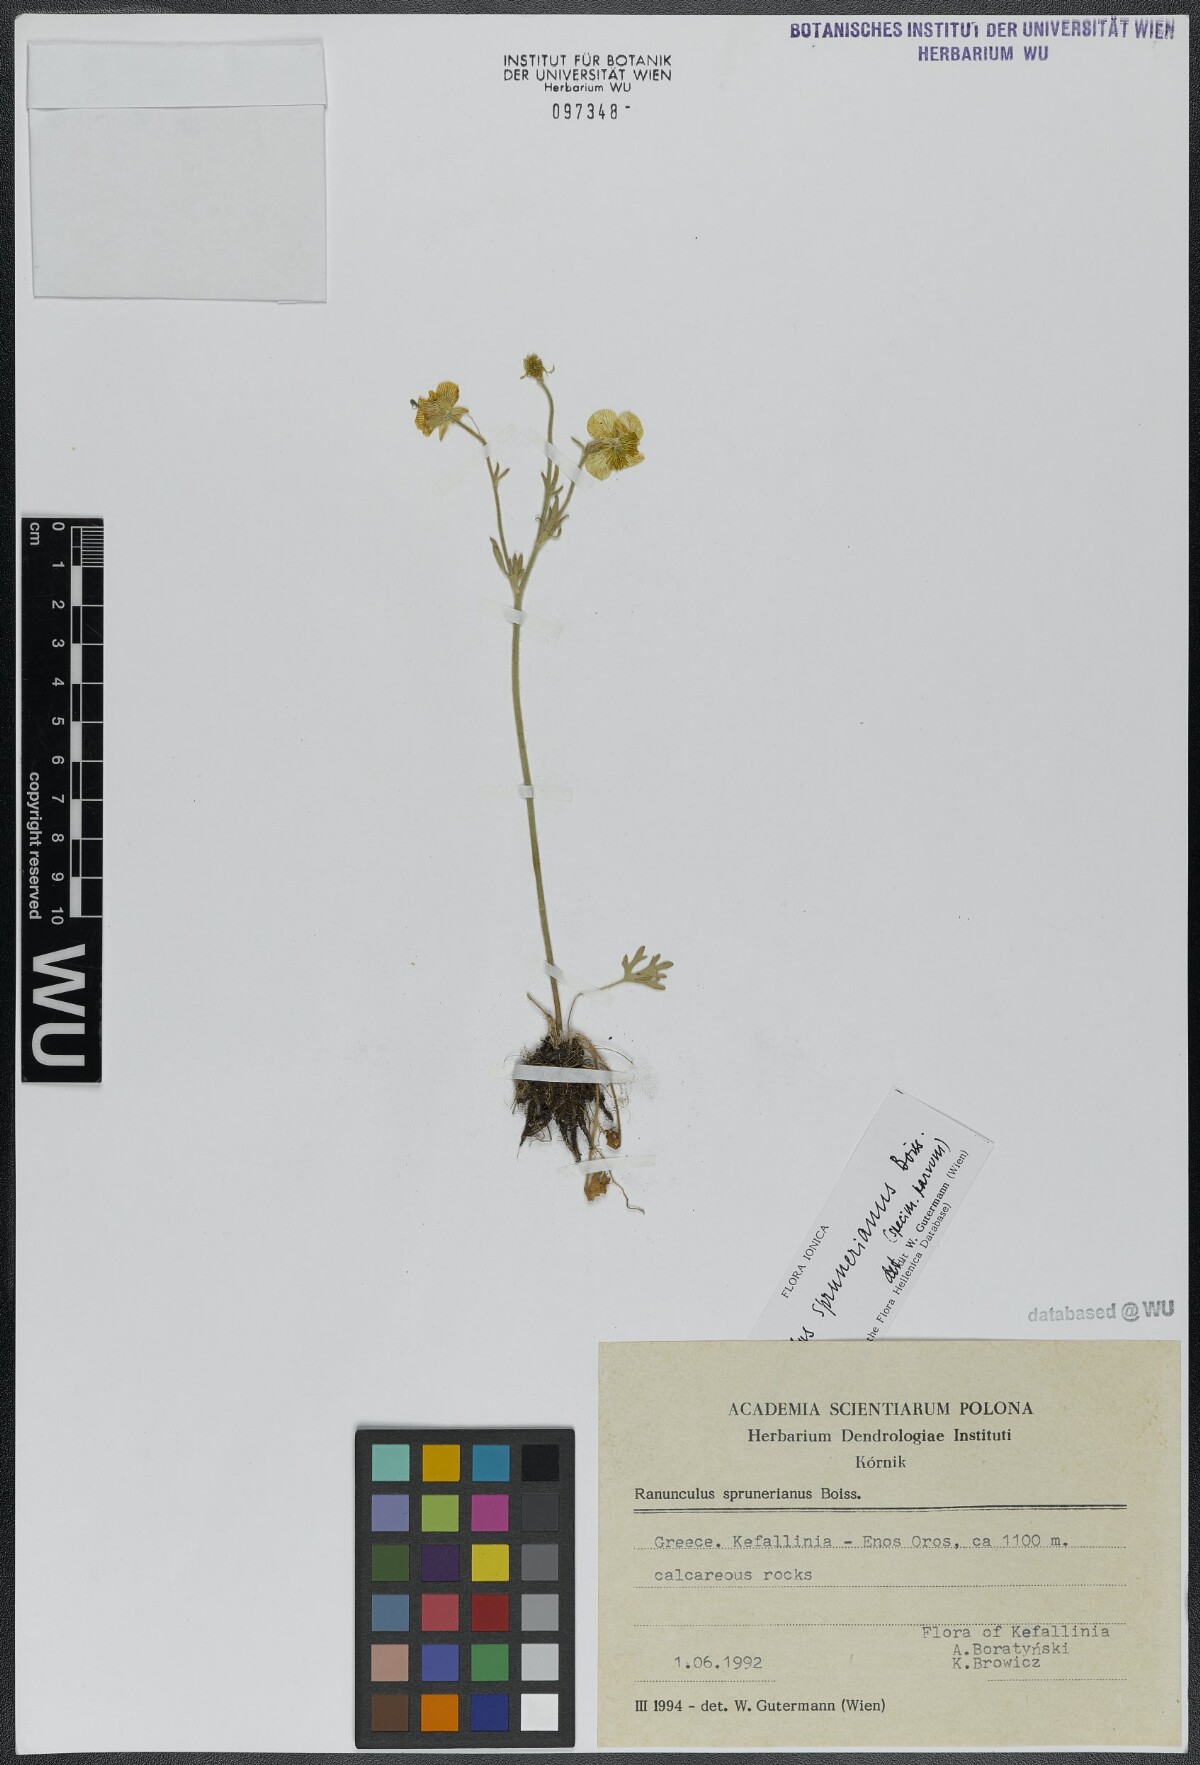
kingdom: Plantae
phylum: Tracheophyta
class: Magnoliopsida
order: Ranunculales
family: Ranunculaceae
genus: Ranunculus
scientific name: Ranunculus sprunerianus
